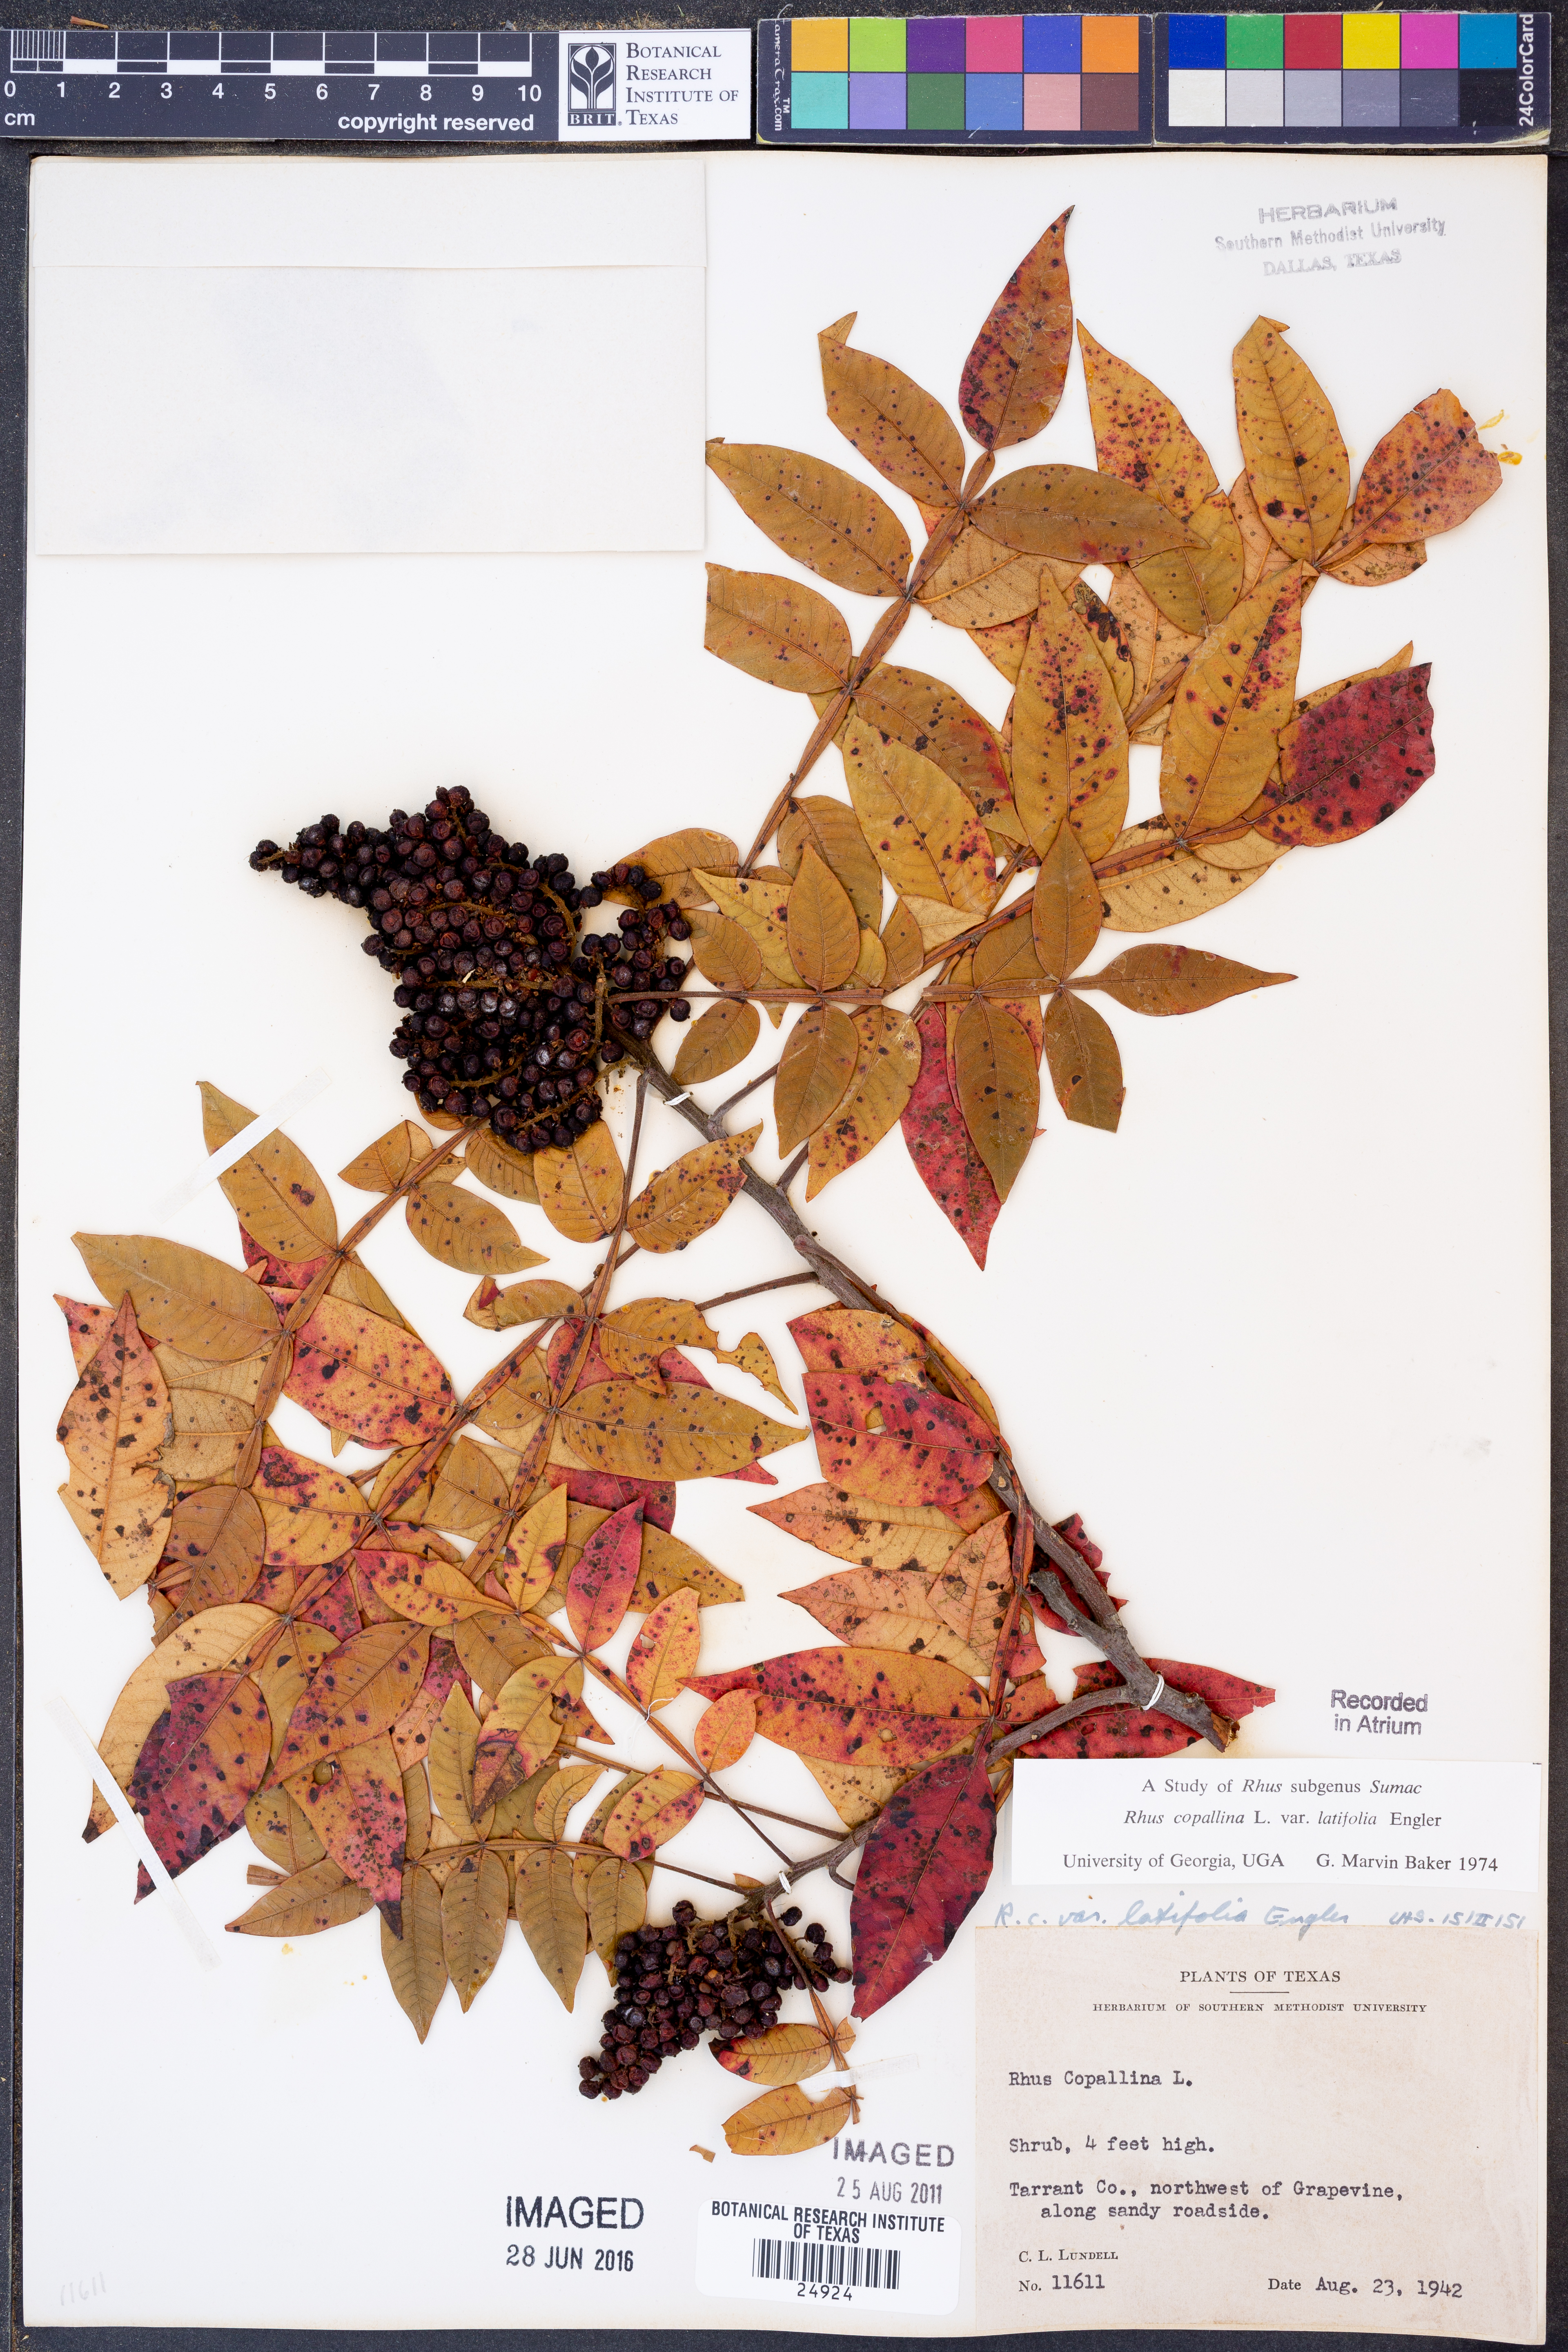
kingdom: Plantae
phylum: Tracheophyta
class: Magnoliopsida
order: Sapindales
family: Anacardiaceae
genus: Rhus
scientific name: Rhus copallina
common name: Shining sumac
